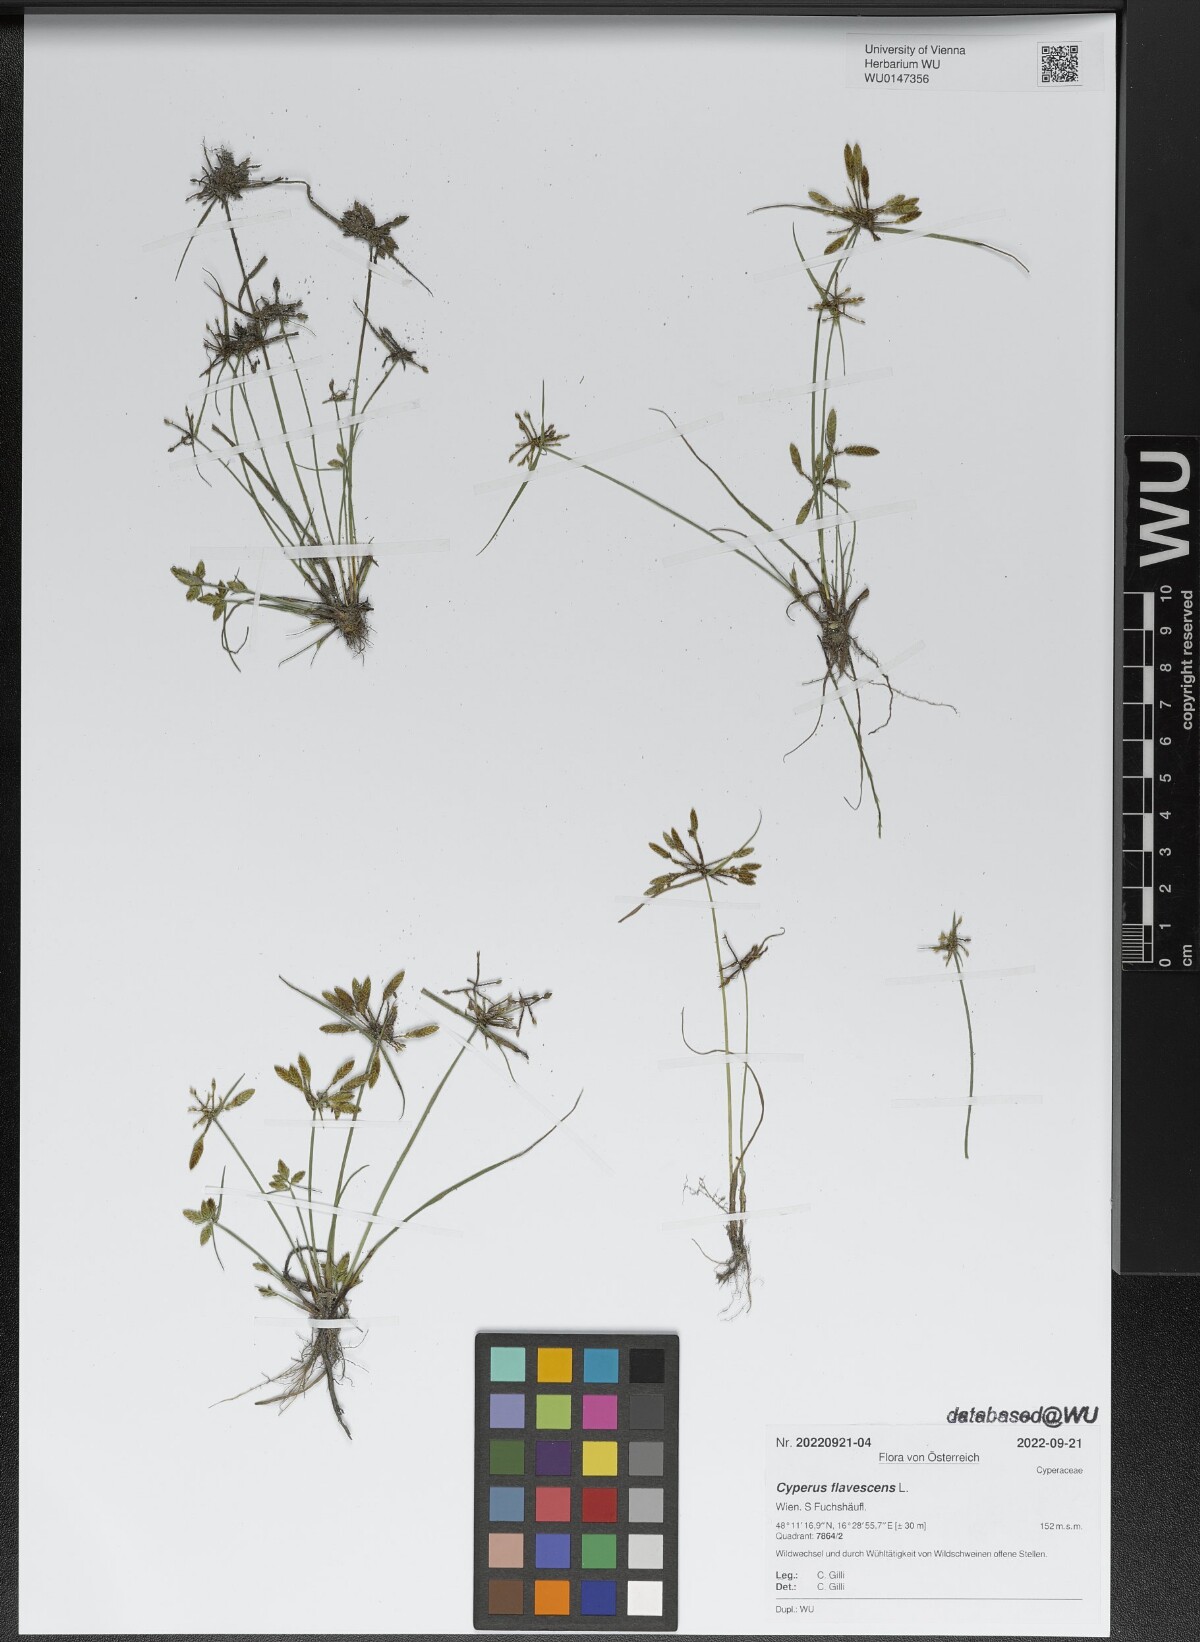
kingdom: Plantae
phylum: Tracheophyta
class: Liliopsida
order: Poales
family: Cyperaceae
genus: Cyperus
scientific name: Cyperus flavescens
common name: Yellow galingale
